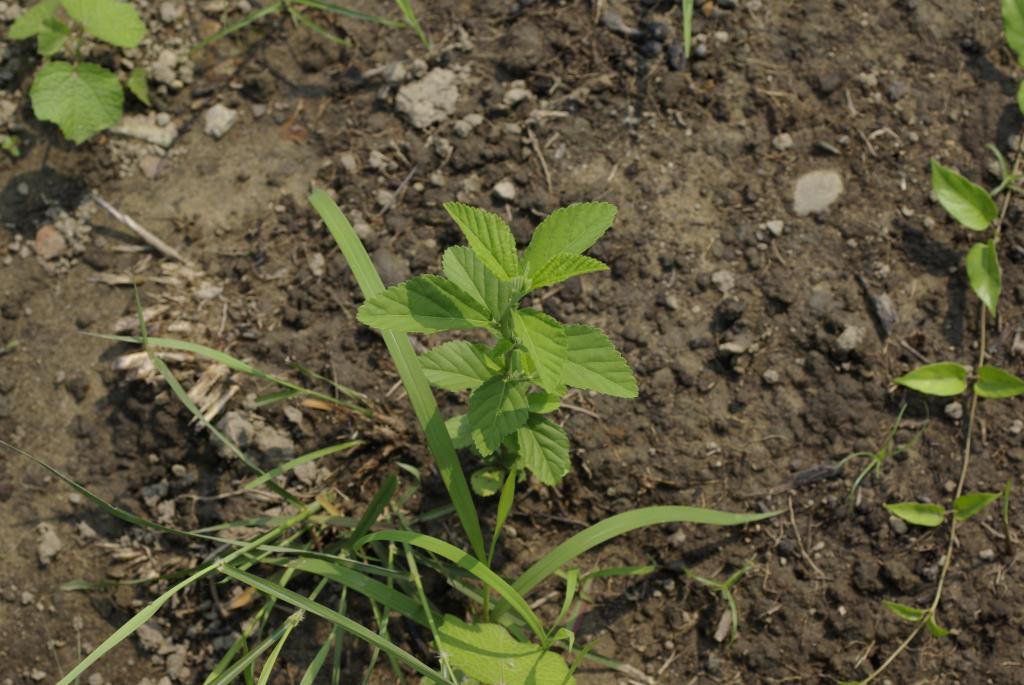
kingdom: Plantae
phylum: Tracheophyta
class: Magnoliopsida
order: Malvales
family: Malvaceae
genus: Sida
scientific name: Sida rhombifolia
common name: Queensland-hemp
